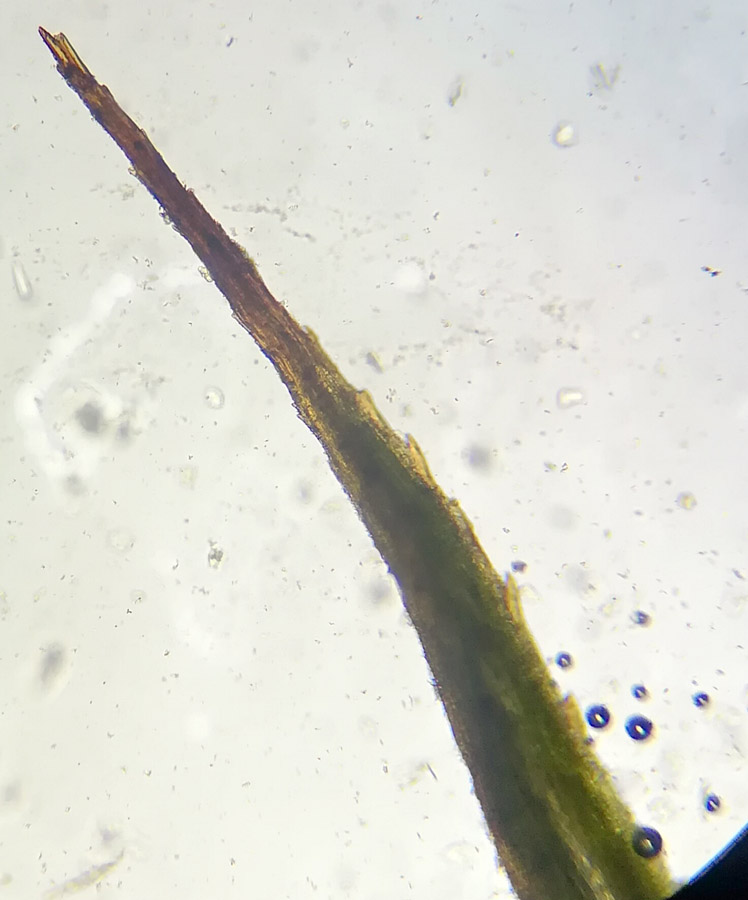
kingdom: Plantae
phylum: Bryophyta
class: Polytrichopsida
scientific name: Polytrichopsida
